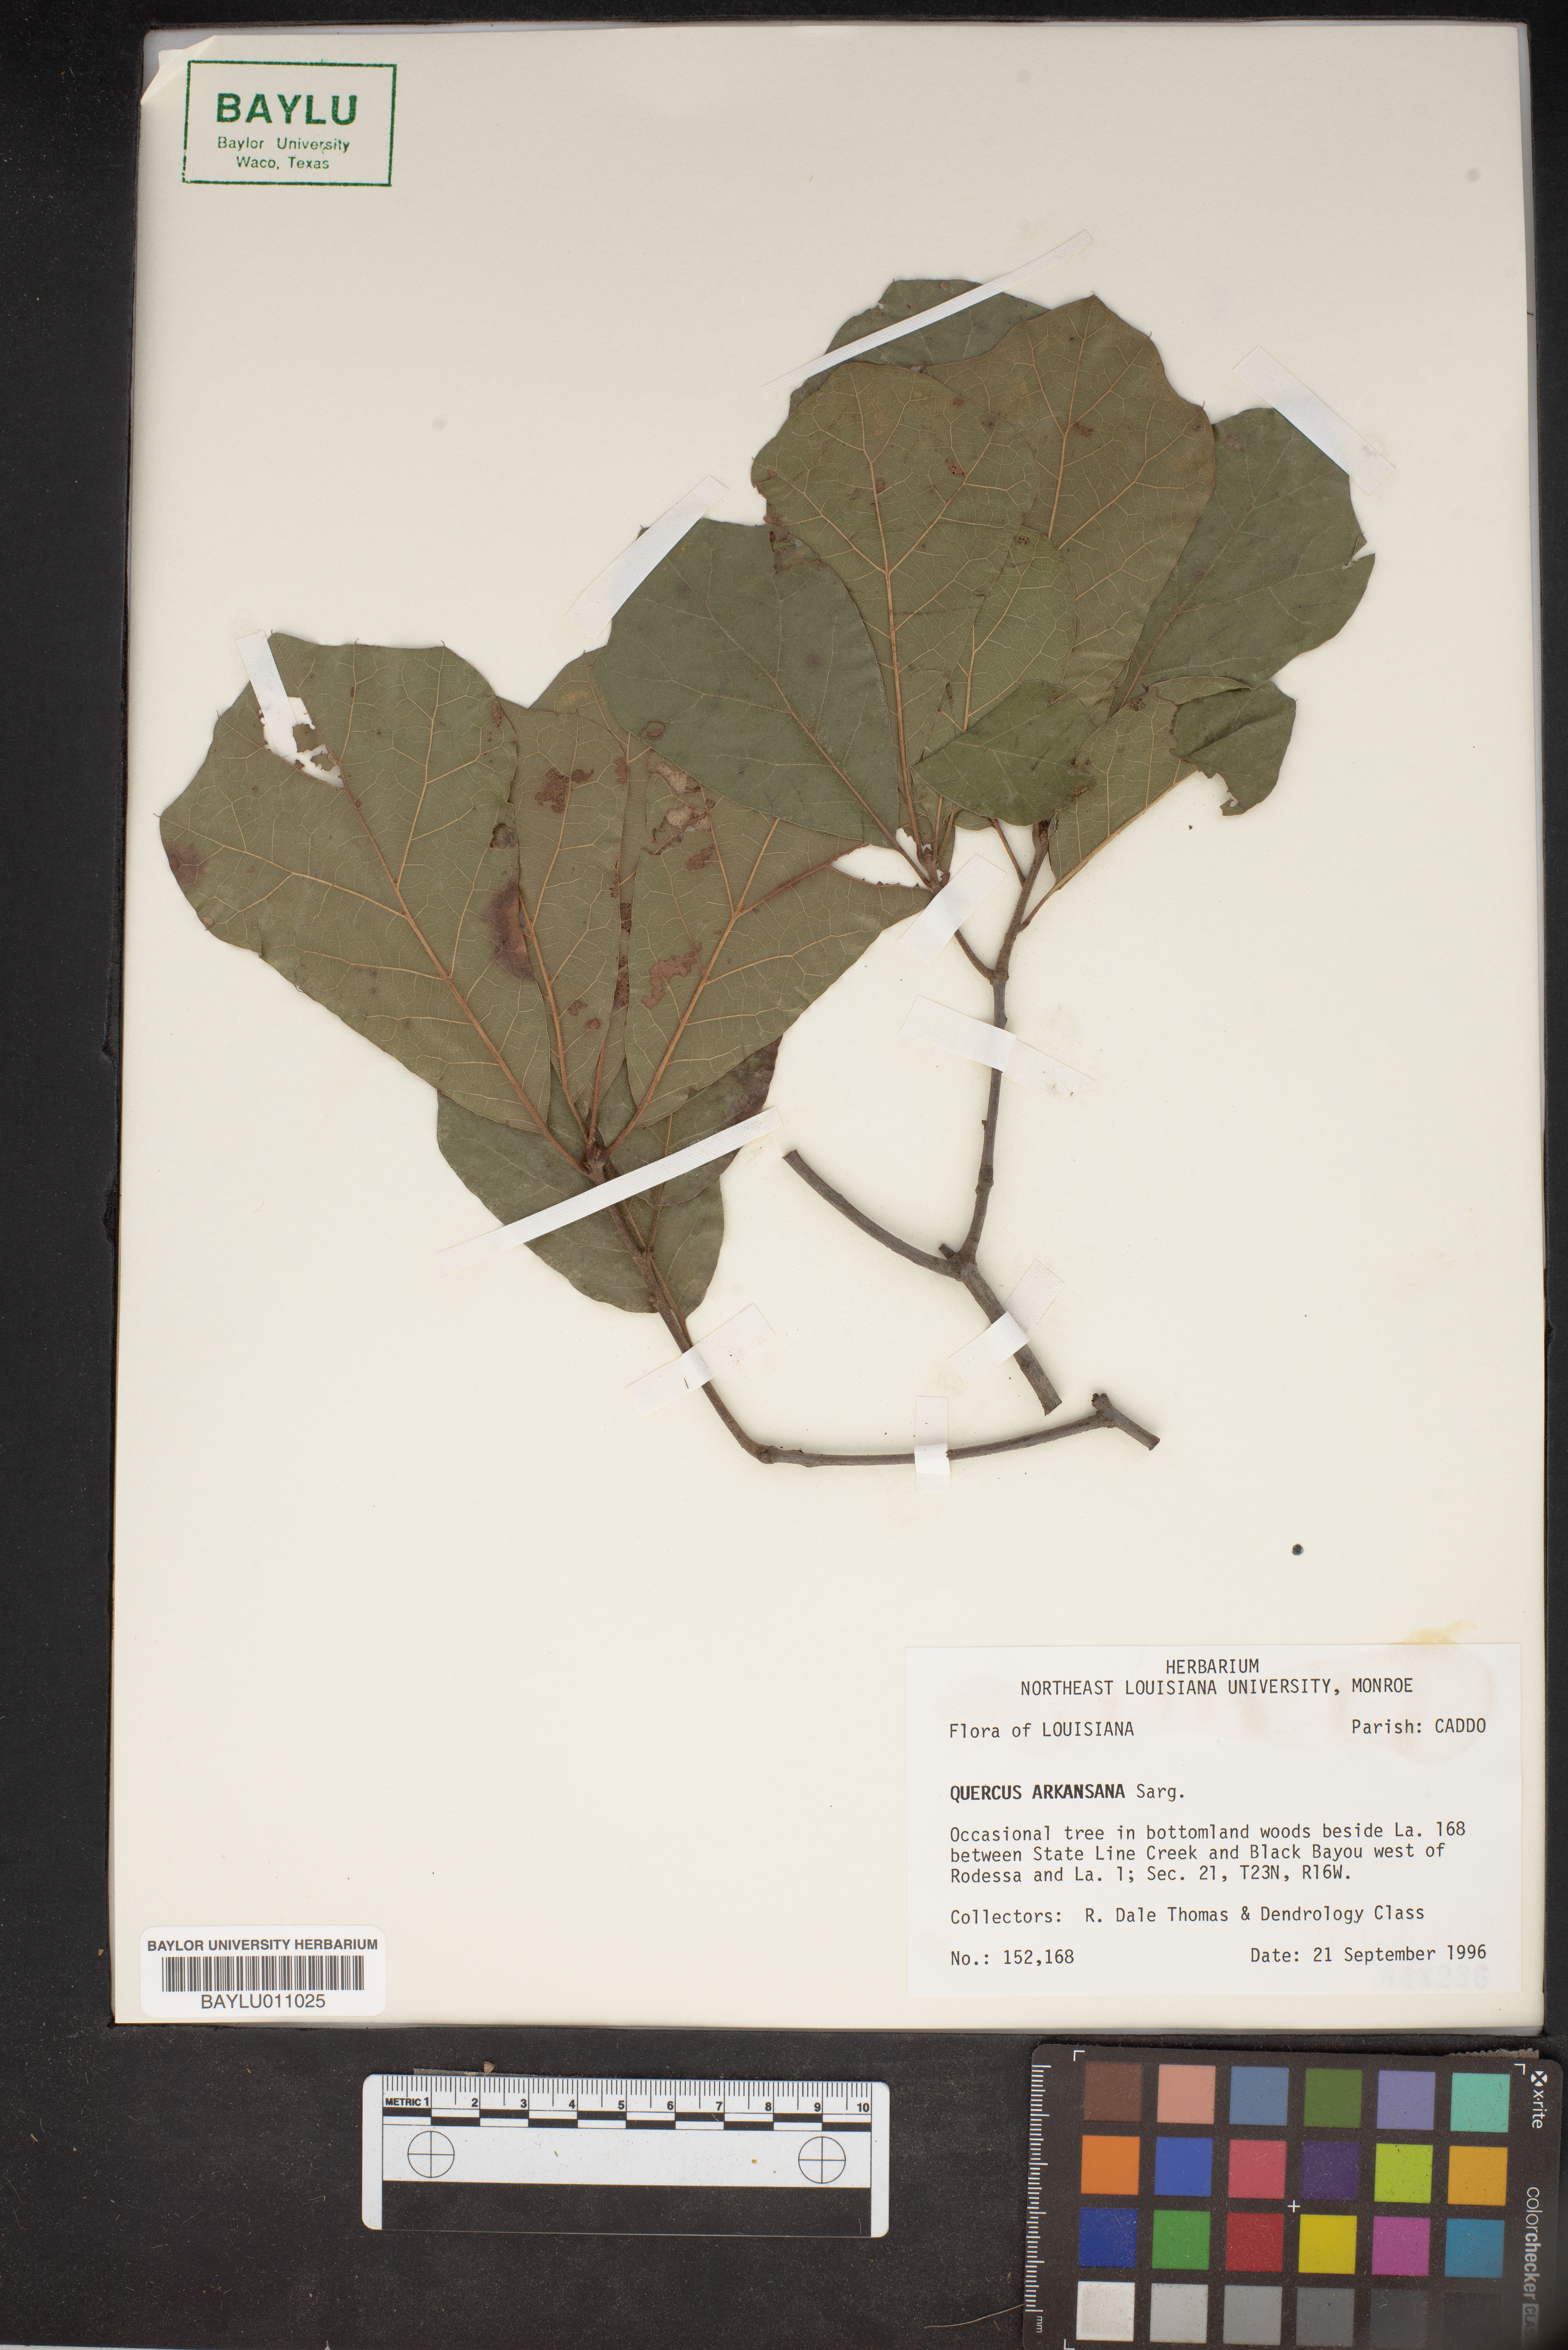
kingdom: Plantae
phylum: Tracheophyta
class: Magnoliopsida
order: Fagales
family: Fagaceae
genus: Quercus
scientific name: Quercus arkansana
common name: Arkansas oak
